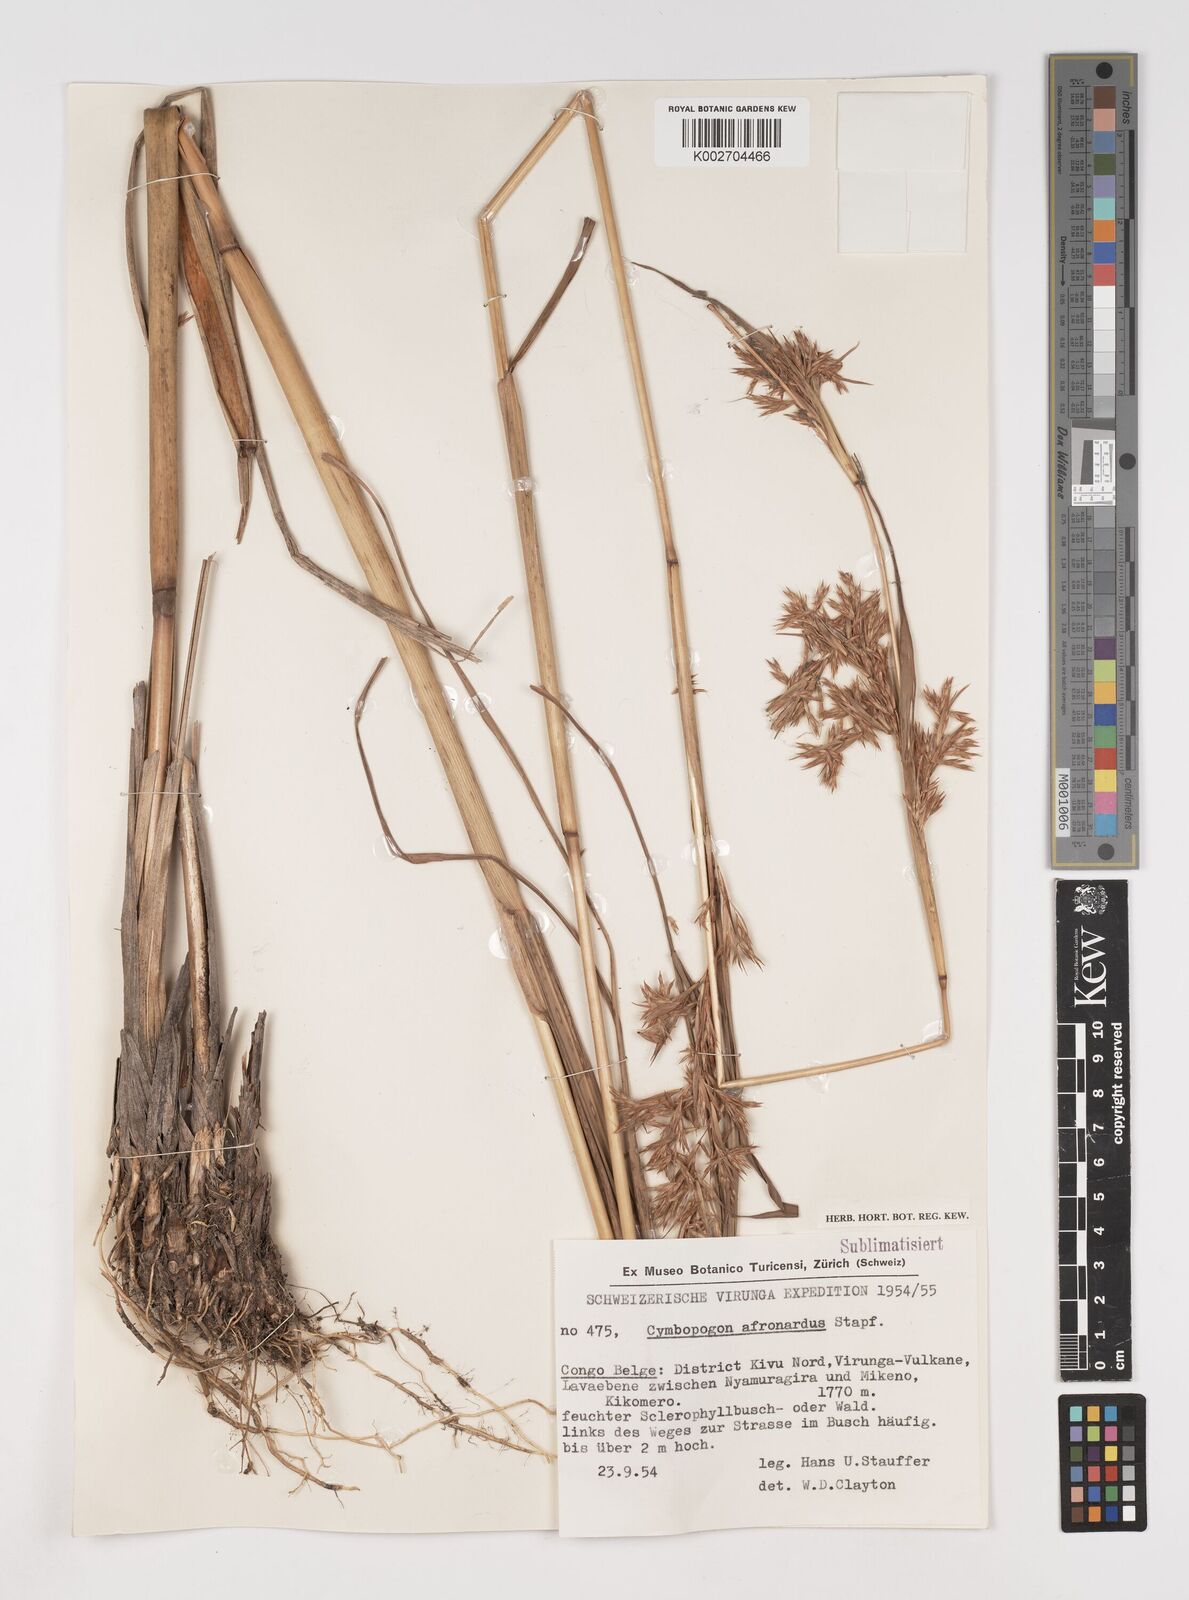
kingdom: Plantae
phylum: Tracheophyta
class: Liliopsida
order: Poales
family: Poaceae
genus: Cymbopogon
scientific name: Cymbopogon nardus
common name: Giant turpentine grass
